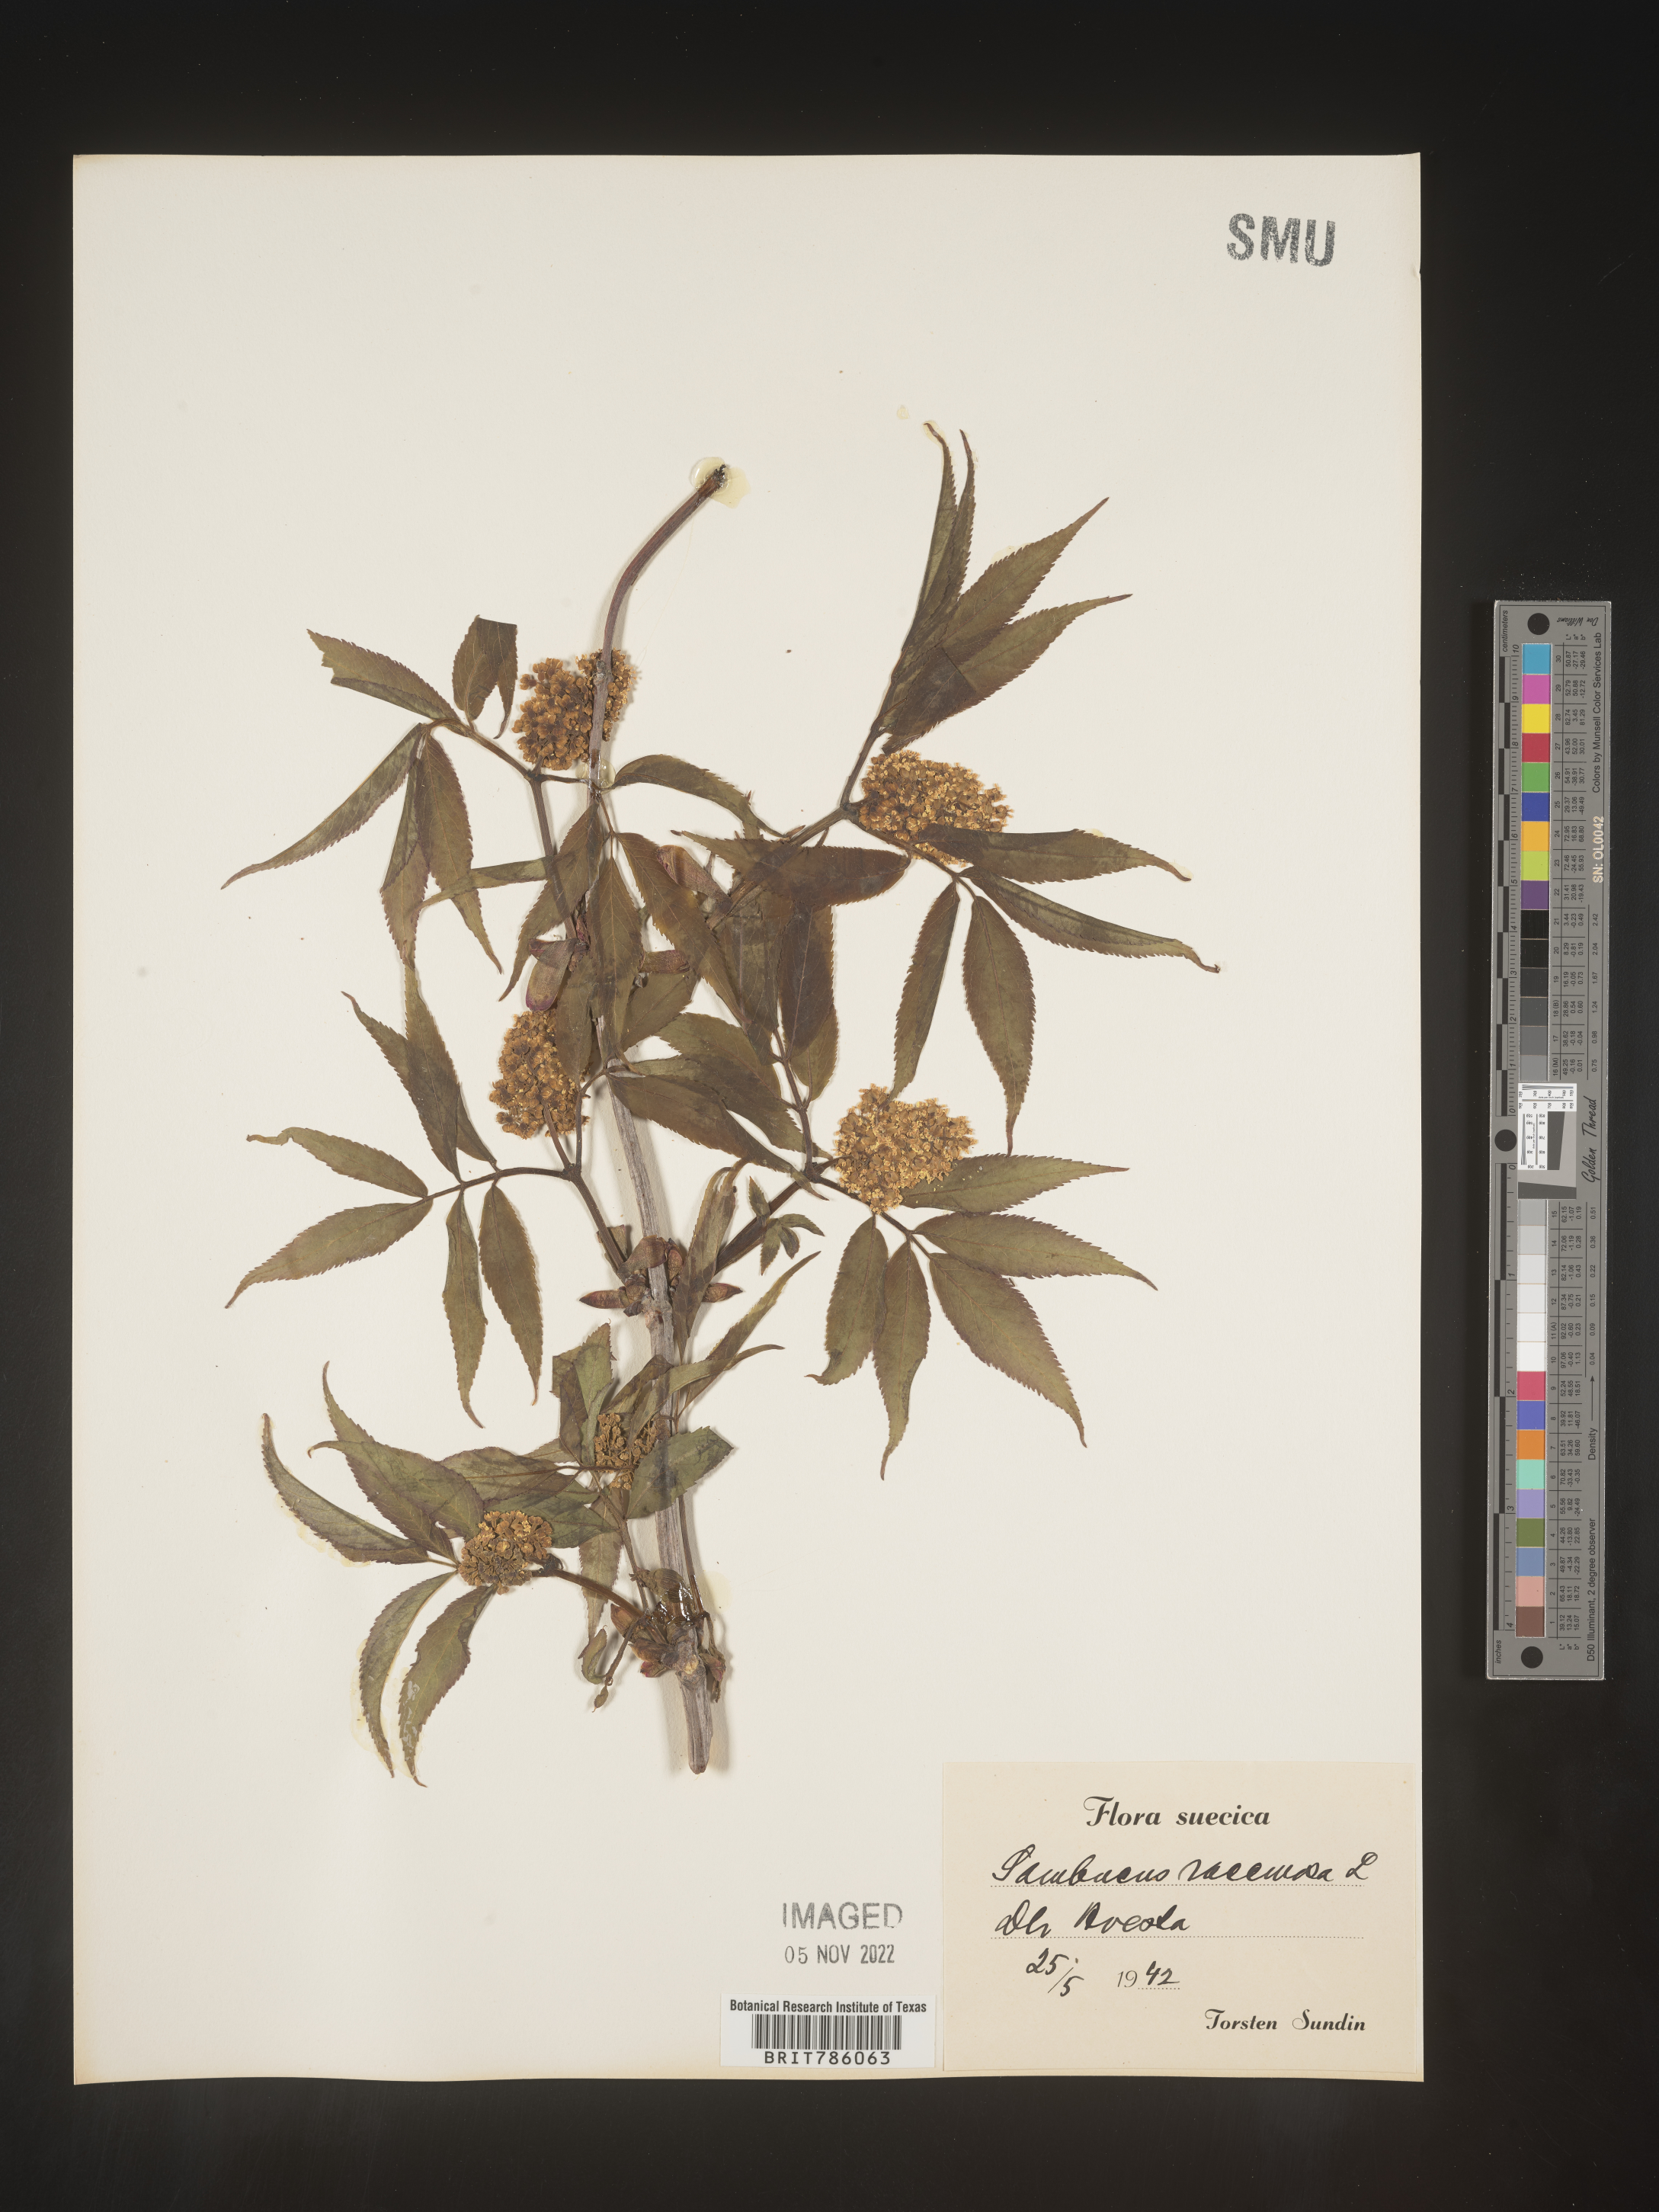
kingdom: Plantae
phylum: Tracheophyta
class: Magnoliopsida
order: Dipsacales
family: Viburnaceae
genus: Sambucus
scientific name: Sambucus
